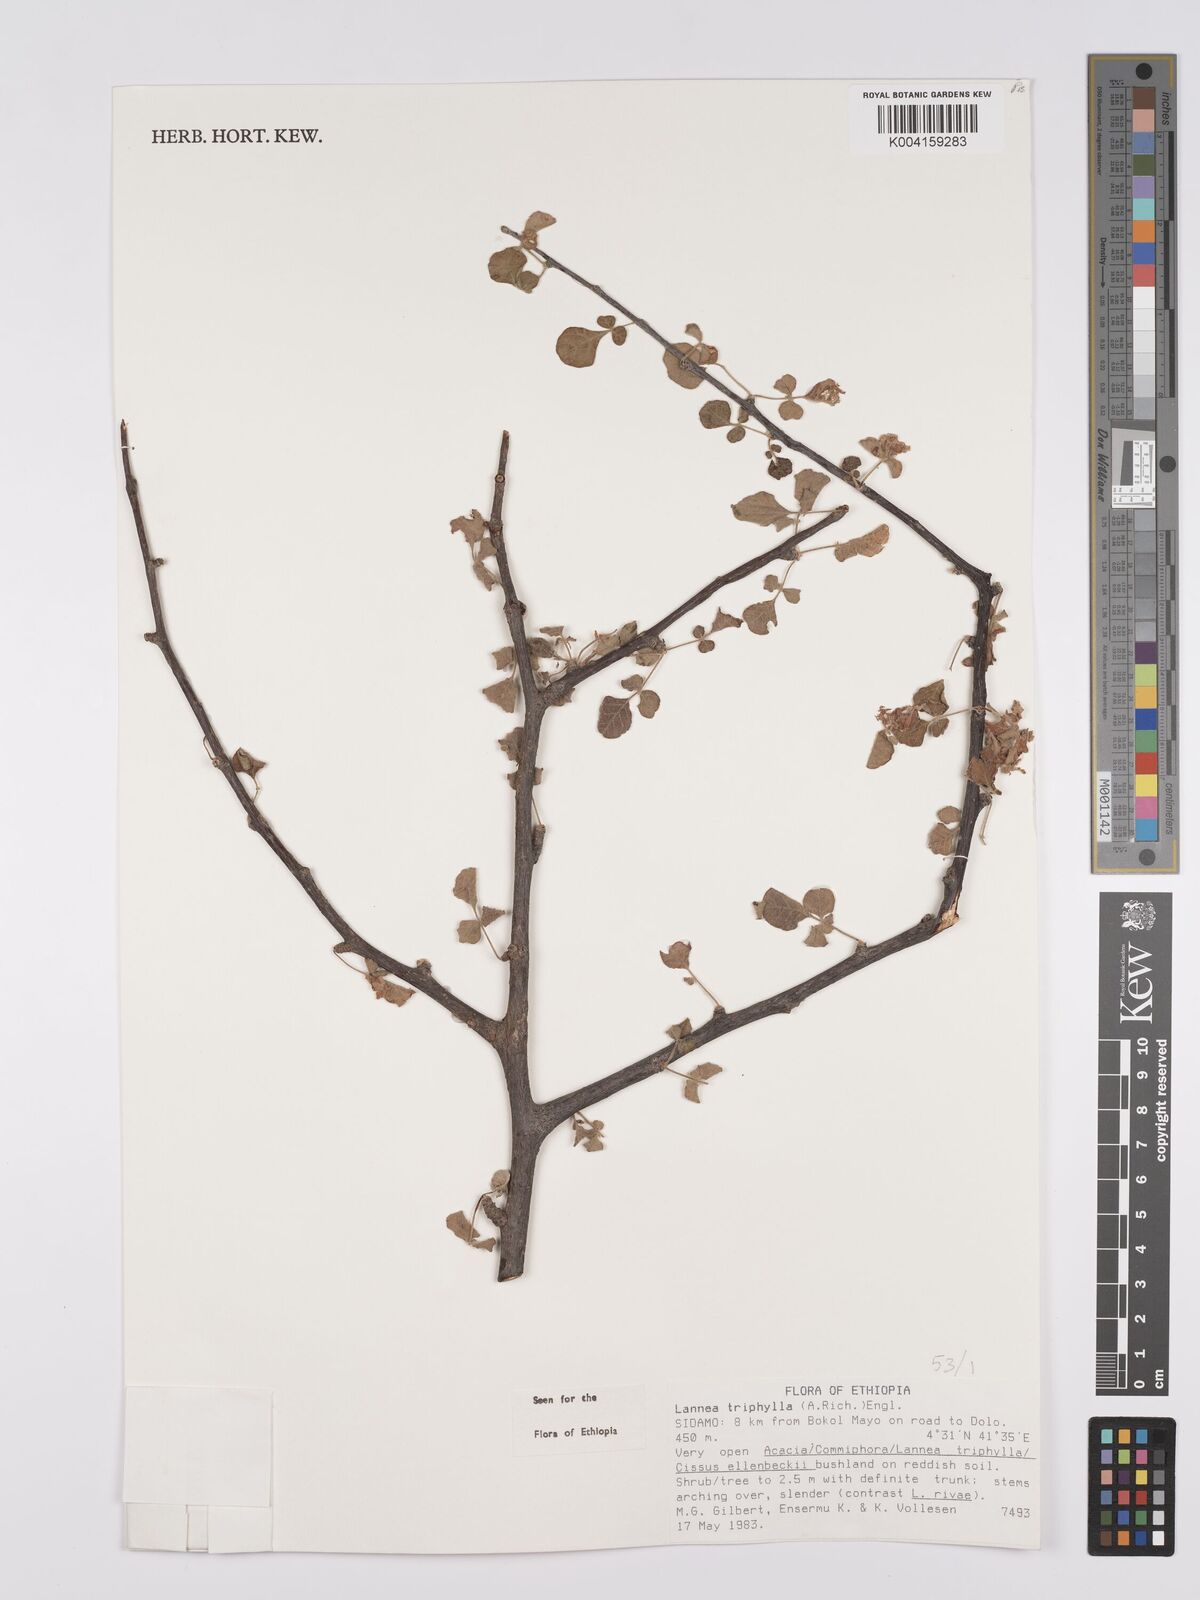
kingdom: Plantae
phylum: Tracheophyta
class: Magnoliopsida
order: Sapindales
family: Anacardiaceae
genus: Lannea
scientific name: Lannea triphylla
